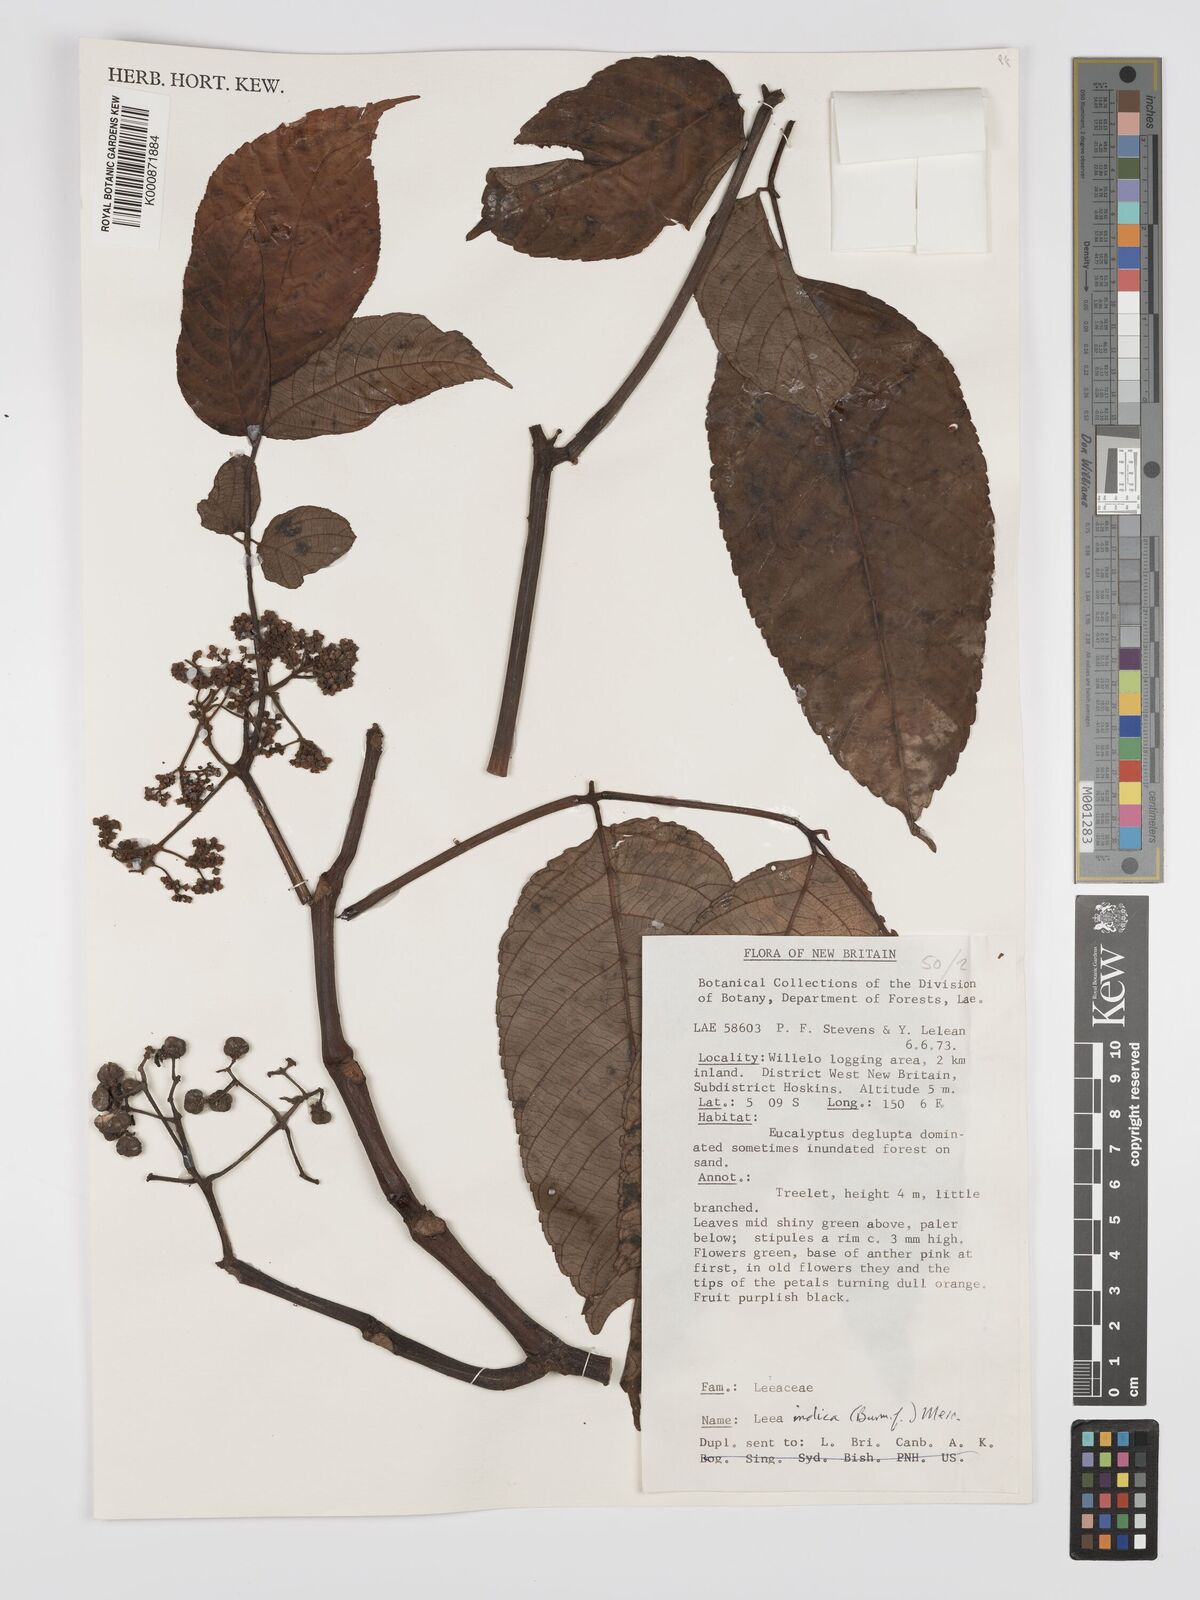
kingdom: Plantae
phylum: Tracheophyta
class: Magnoliopsida
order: Vitales
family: Vitaceae
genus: Leea
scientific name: Leea indica
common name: Bandicoot-berry
